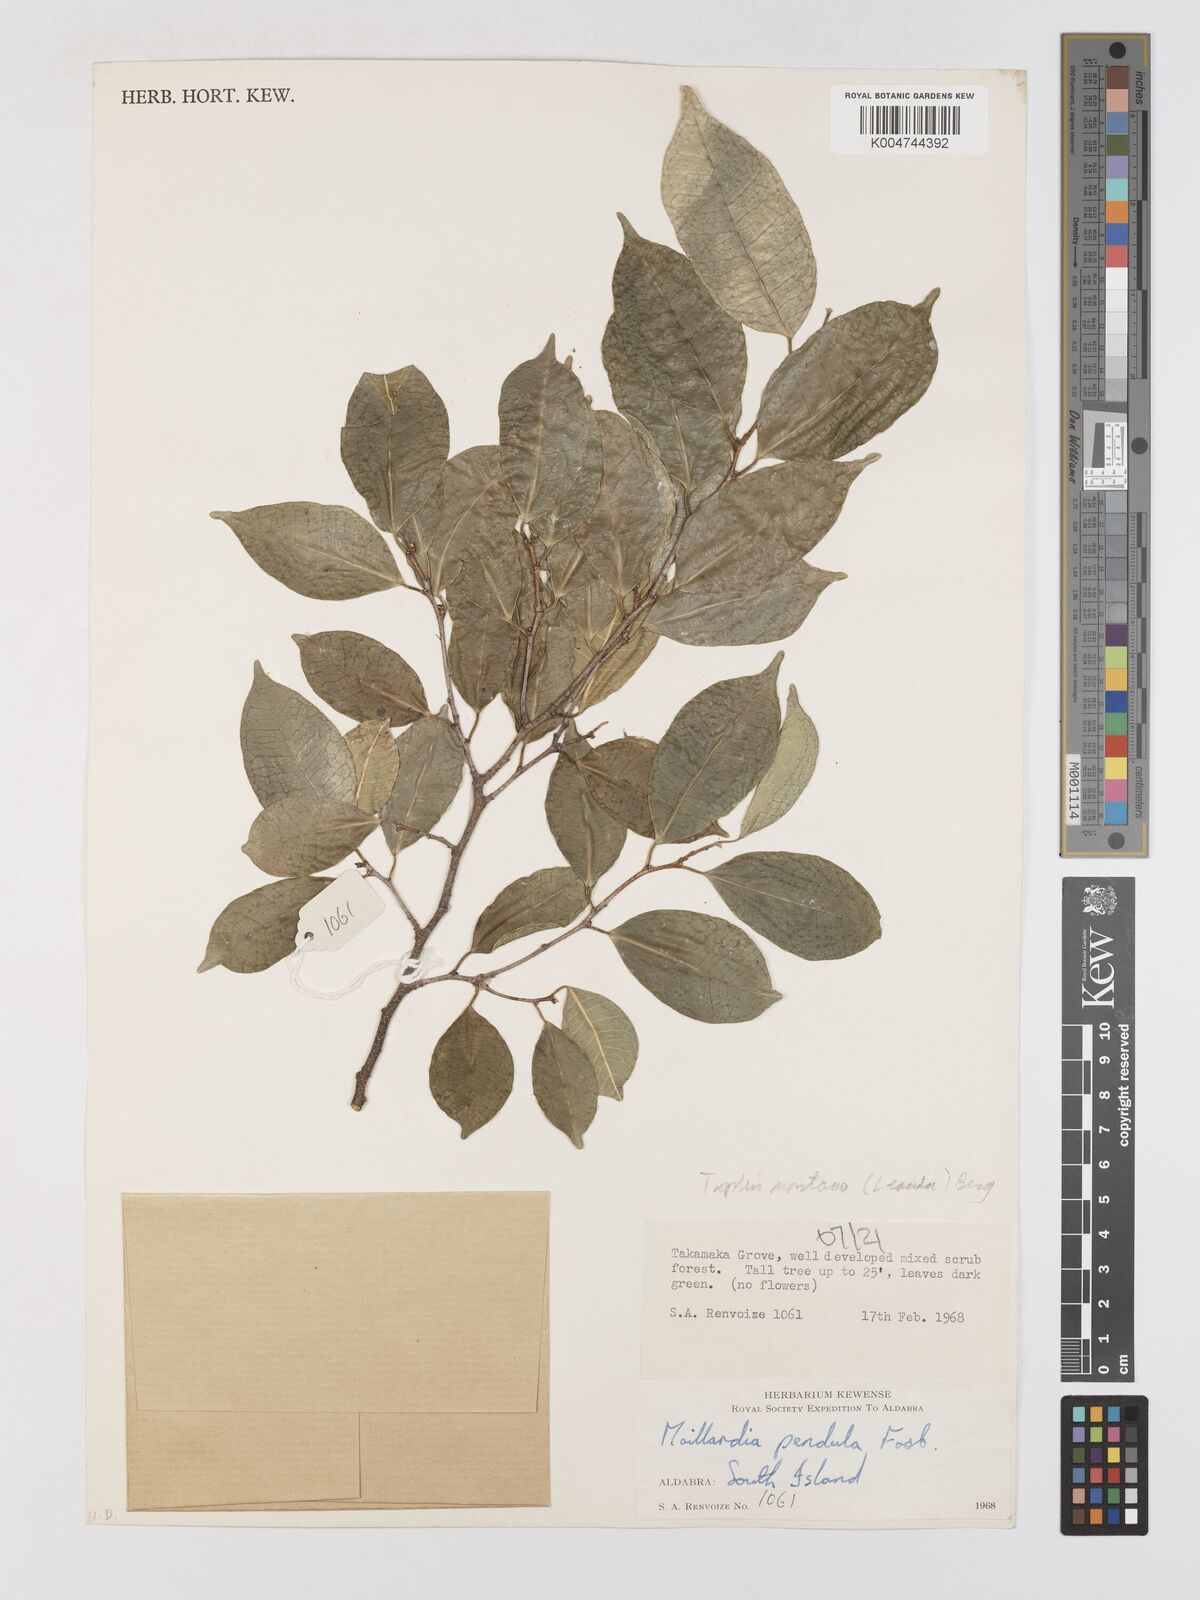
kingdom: Plantae
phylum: Tracheophyta
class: Magnoliopsida
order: Rosales
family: Moraceae
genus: Maillardia
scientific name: Maillardia montana
